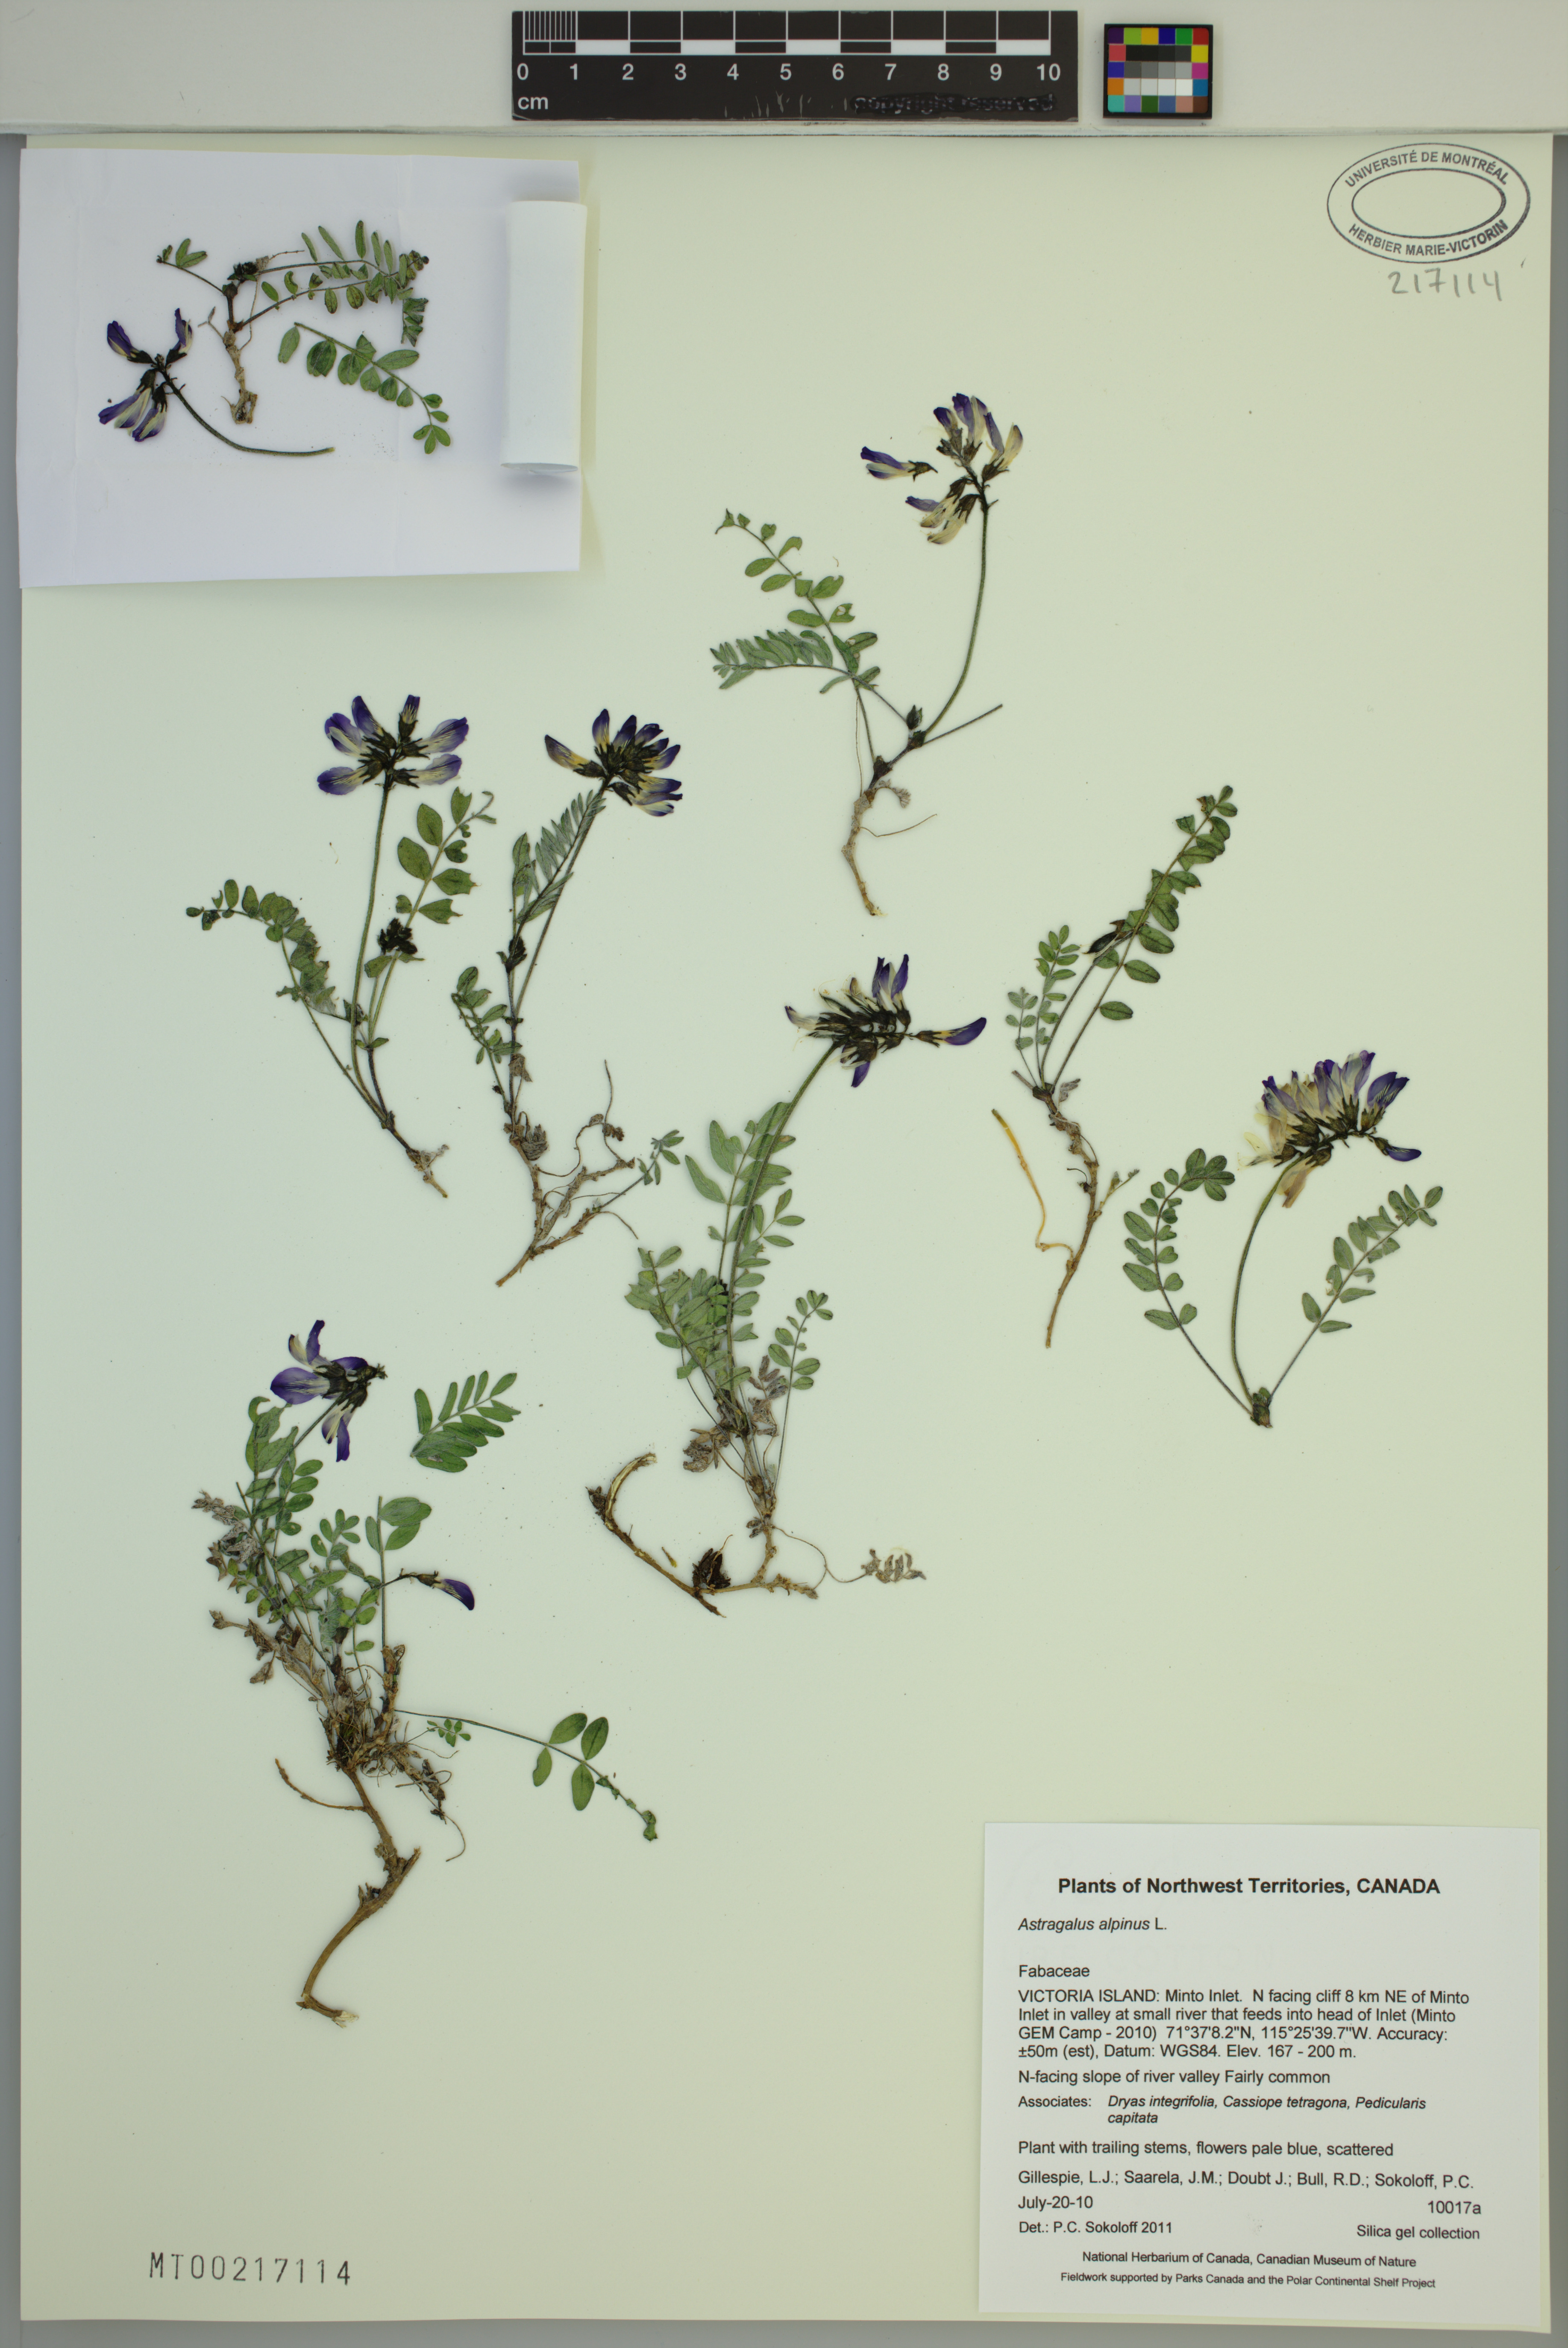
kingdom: Plantae
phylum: Tracheophyta
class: Magnoliopsida
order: Fabales
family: Fabaceae
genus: Astragalus
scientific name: Astragalus alpinus
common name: Alpine milk-vetch
